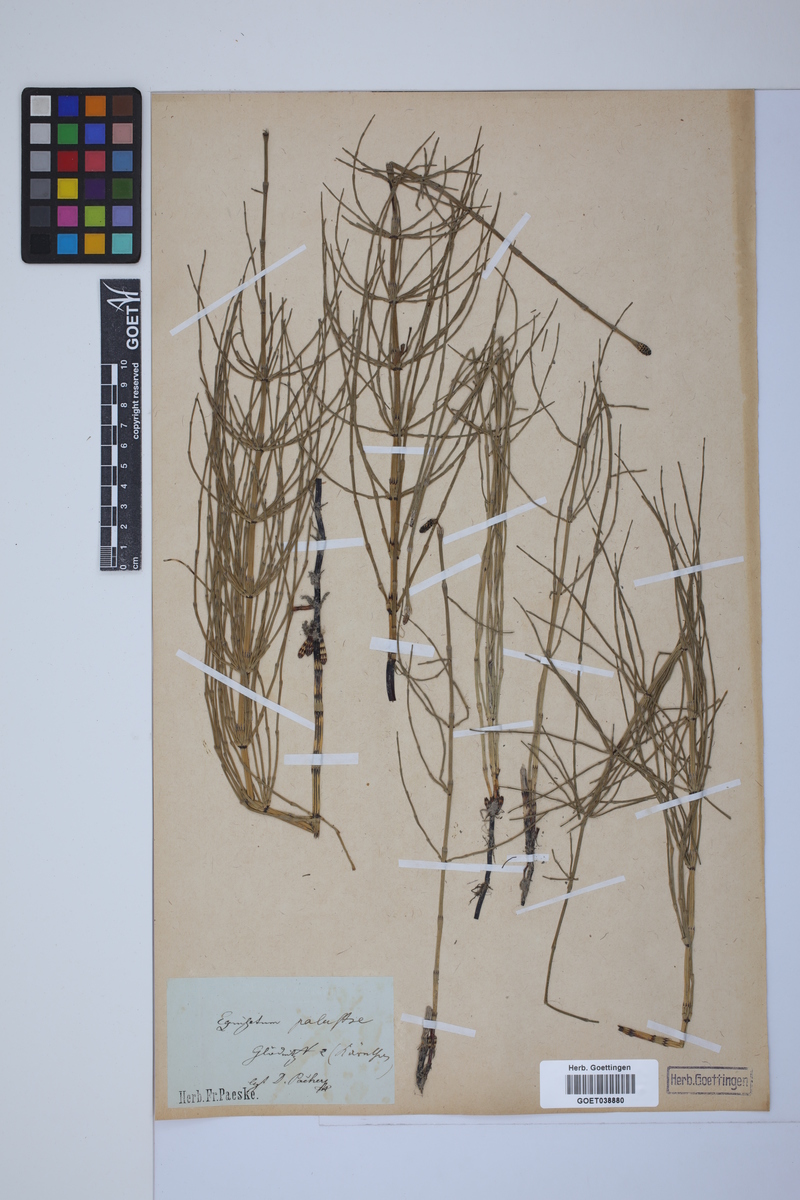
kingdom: Plantae
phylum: Tracheophyta
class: Polypodiopsida
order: Equisetales
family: Equisetaceae
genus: Equisetum
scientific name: Equisetum palustre
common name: Marsh horsetail
